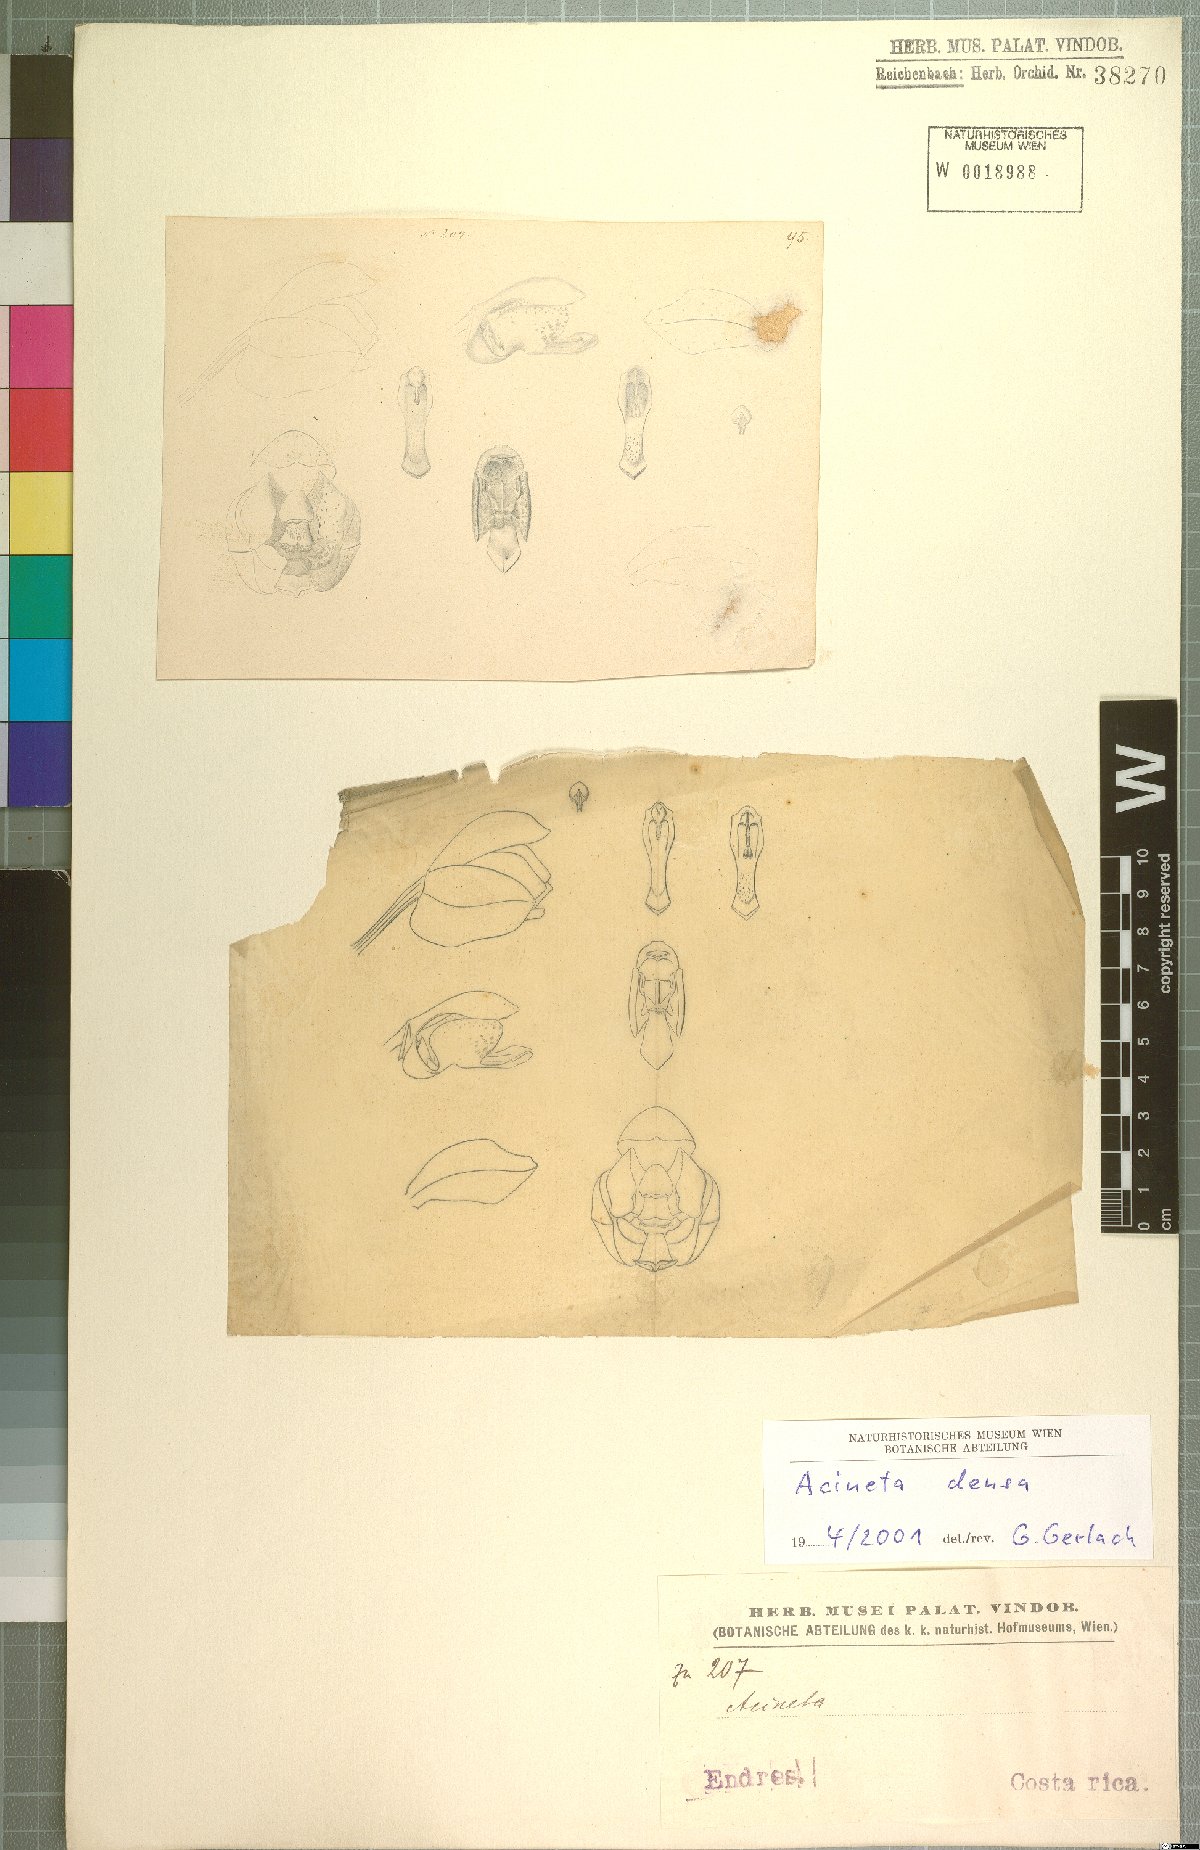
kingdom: Plantae
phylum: Tracheophyta
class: Liliopsida
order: Asparagales
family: Orchidaceae
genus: Acineta
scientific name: Acineta densa
